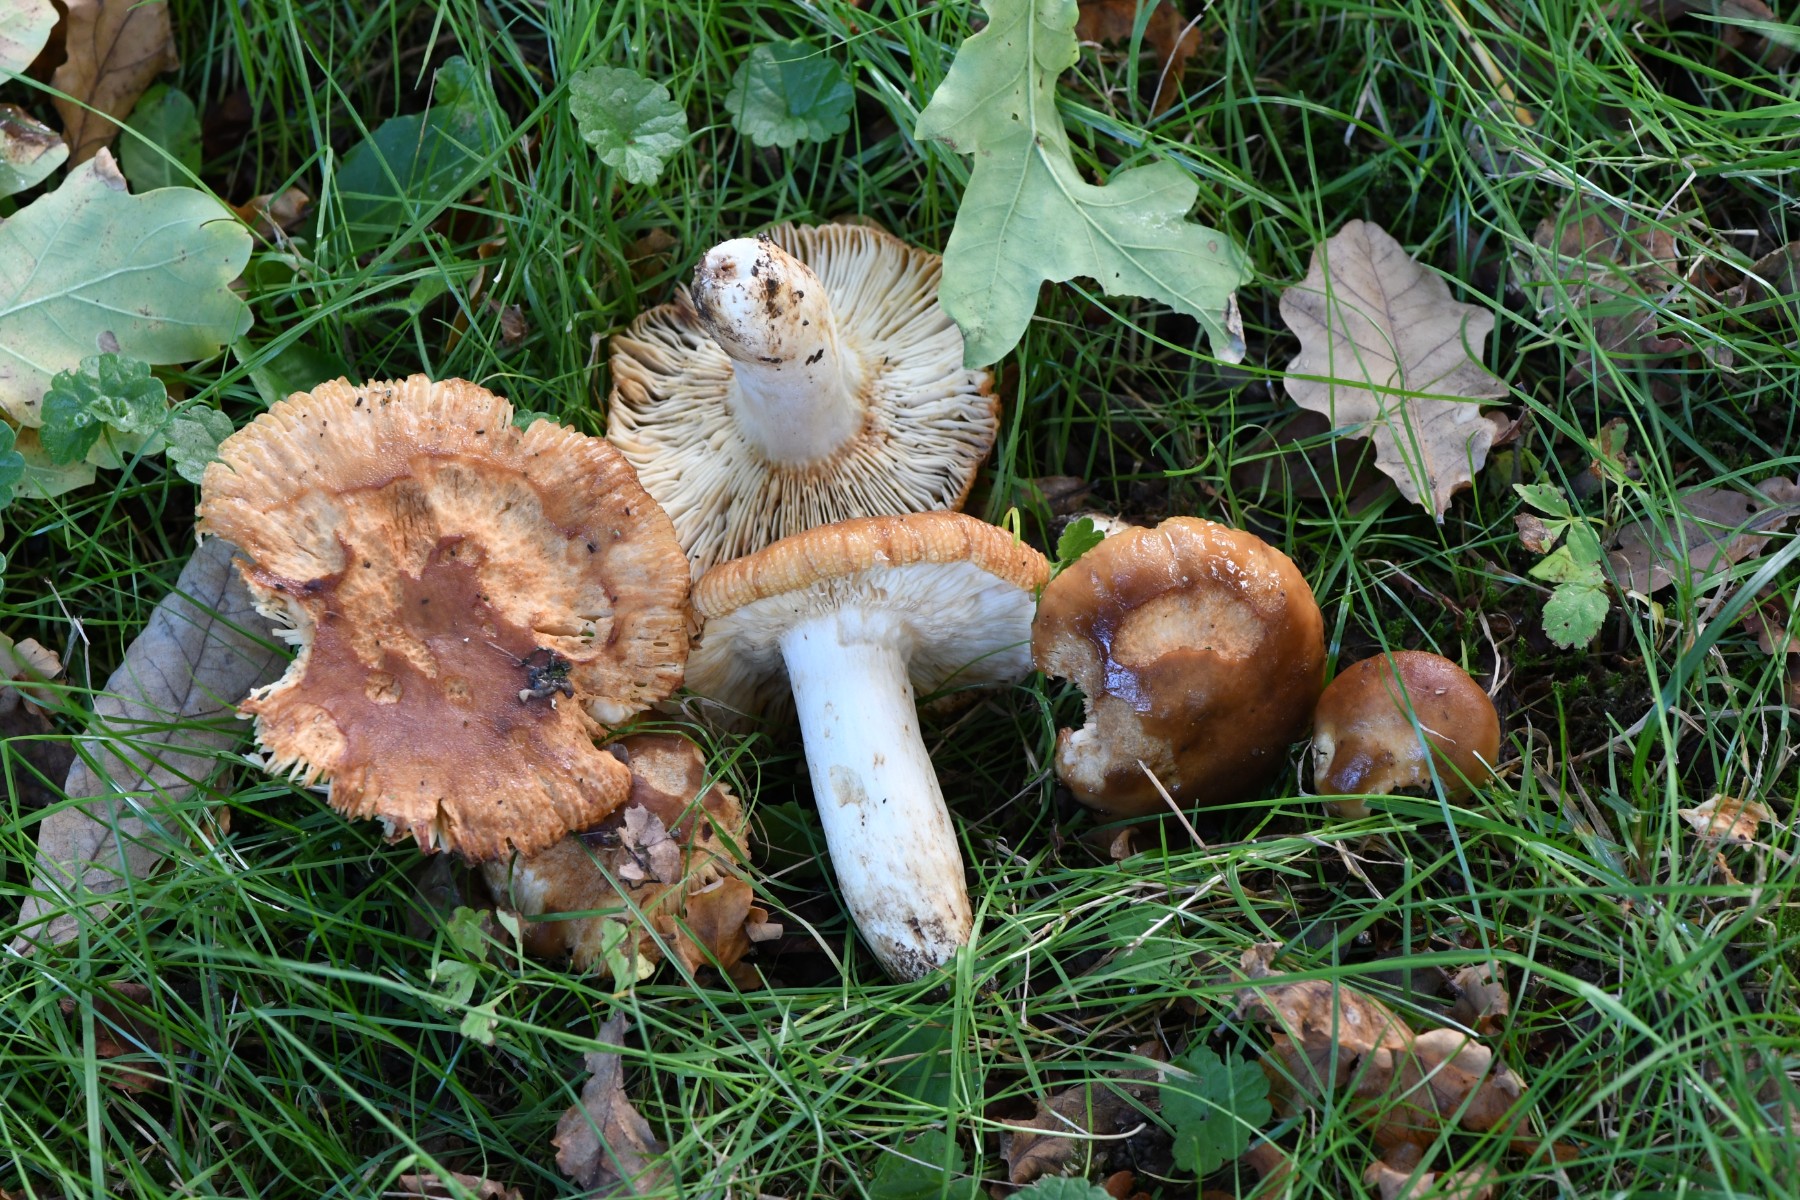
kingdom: Fungi
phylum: Basidiomycota
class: Agaricomycetes
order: Russulales
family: Russulaceae
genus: Russula
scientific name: Russula foetens
